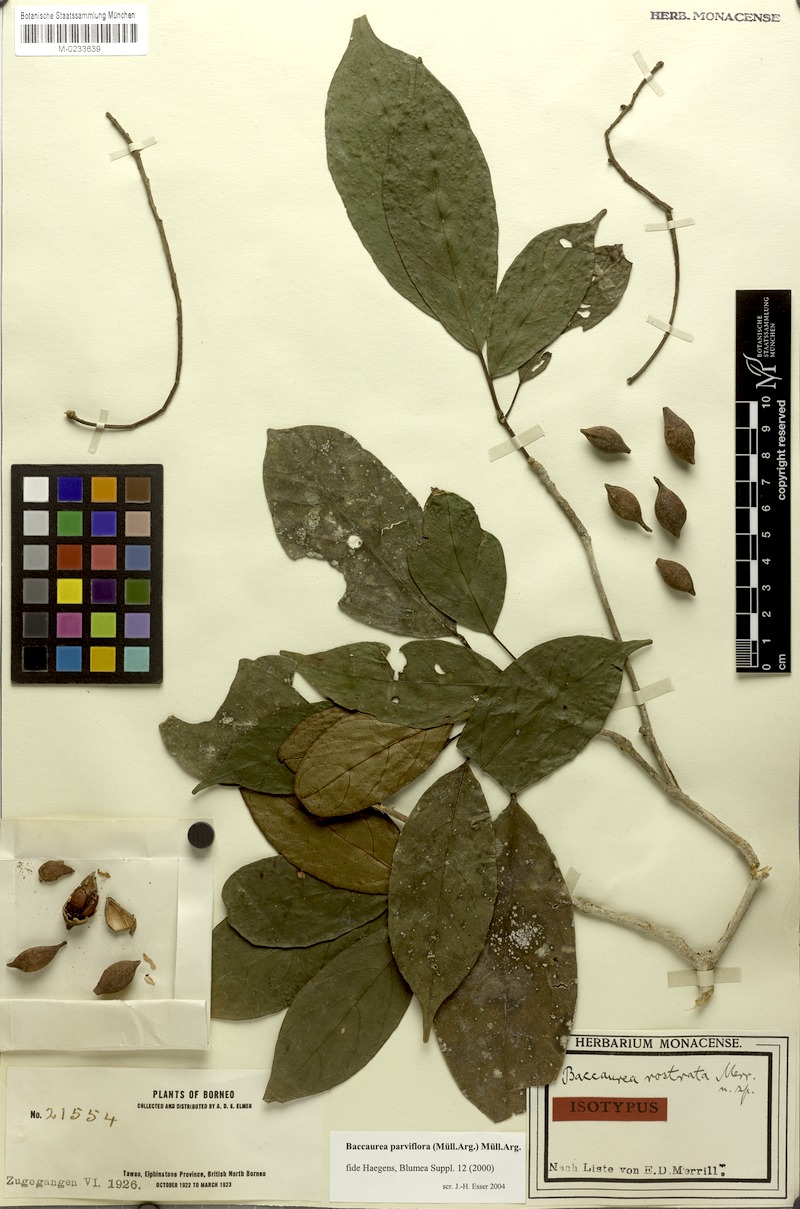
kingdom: Plantae
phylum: Tracheophyta
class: Magnoliopsida
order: Malpighiales
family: Phyllanthaceae
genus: Baccaurea
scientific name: Baccaurea parviflora
